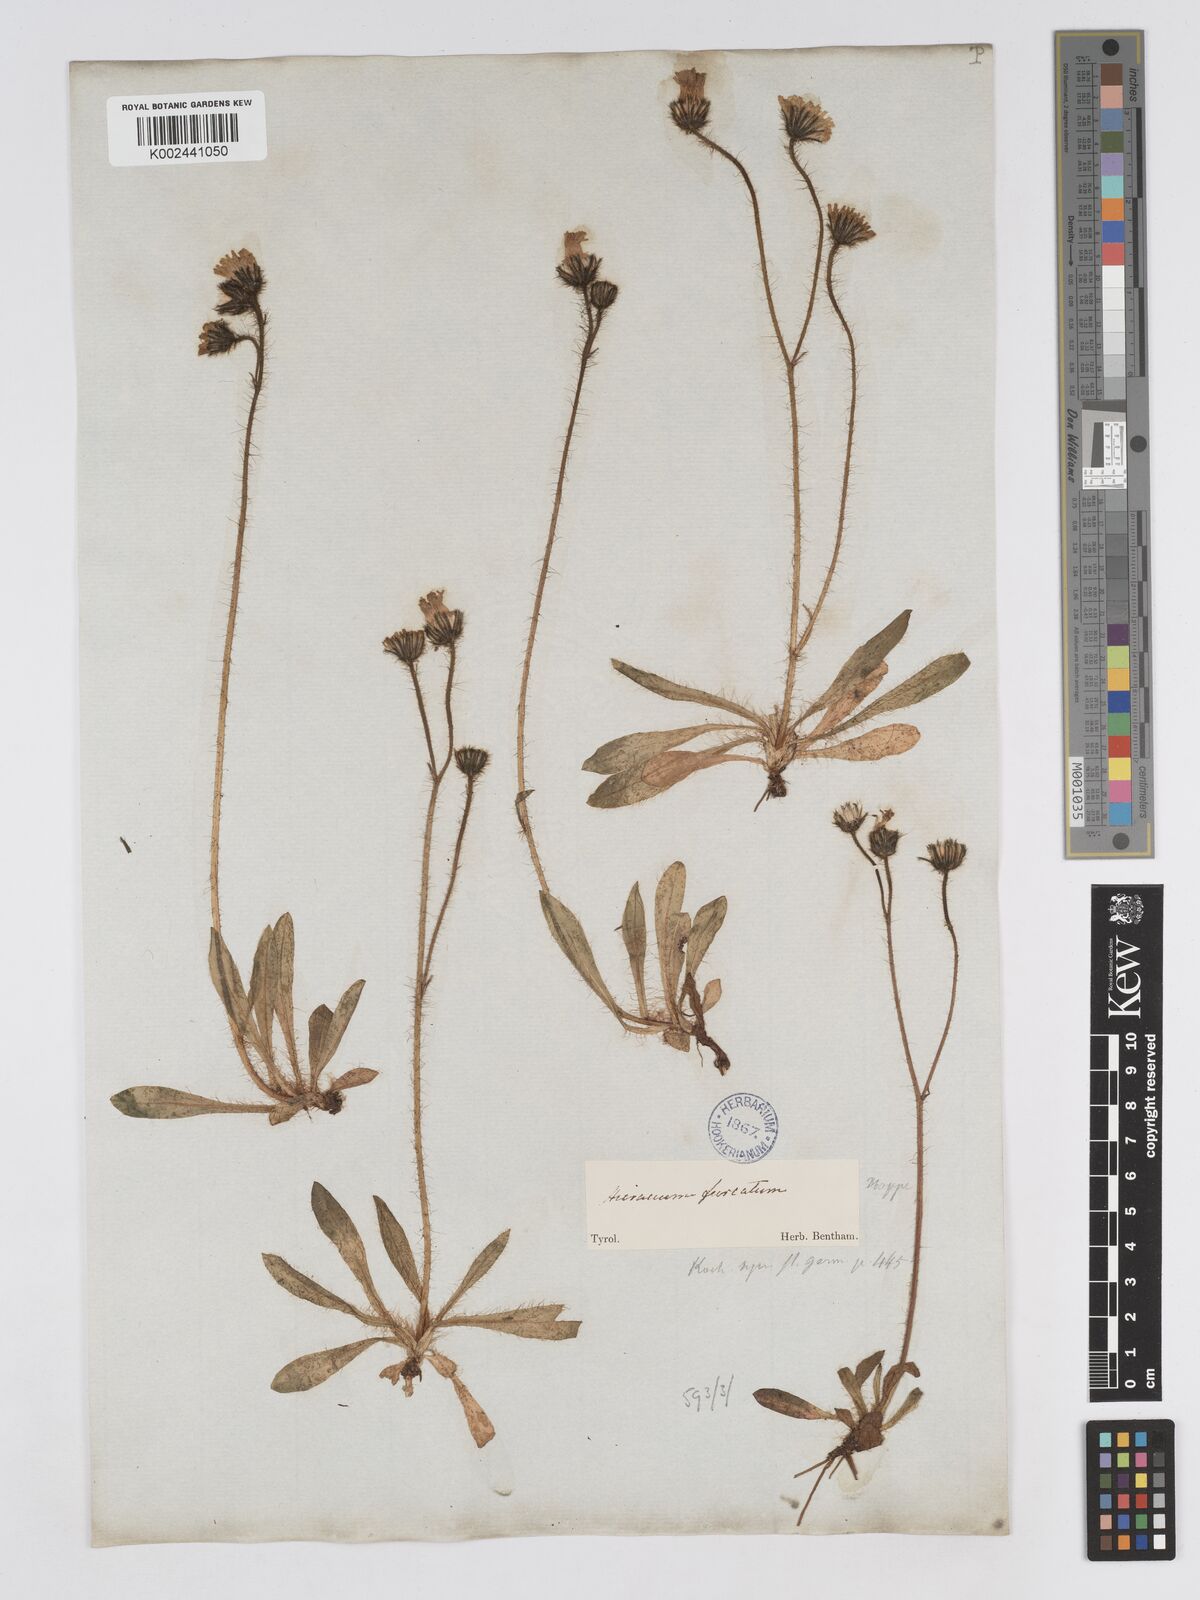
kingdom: Plantae
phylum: Tracheophyta
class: Magnoliopsida
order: Asterales
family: Asteraceae
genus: Pilosella
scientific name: Pilosella sphaerocephala
